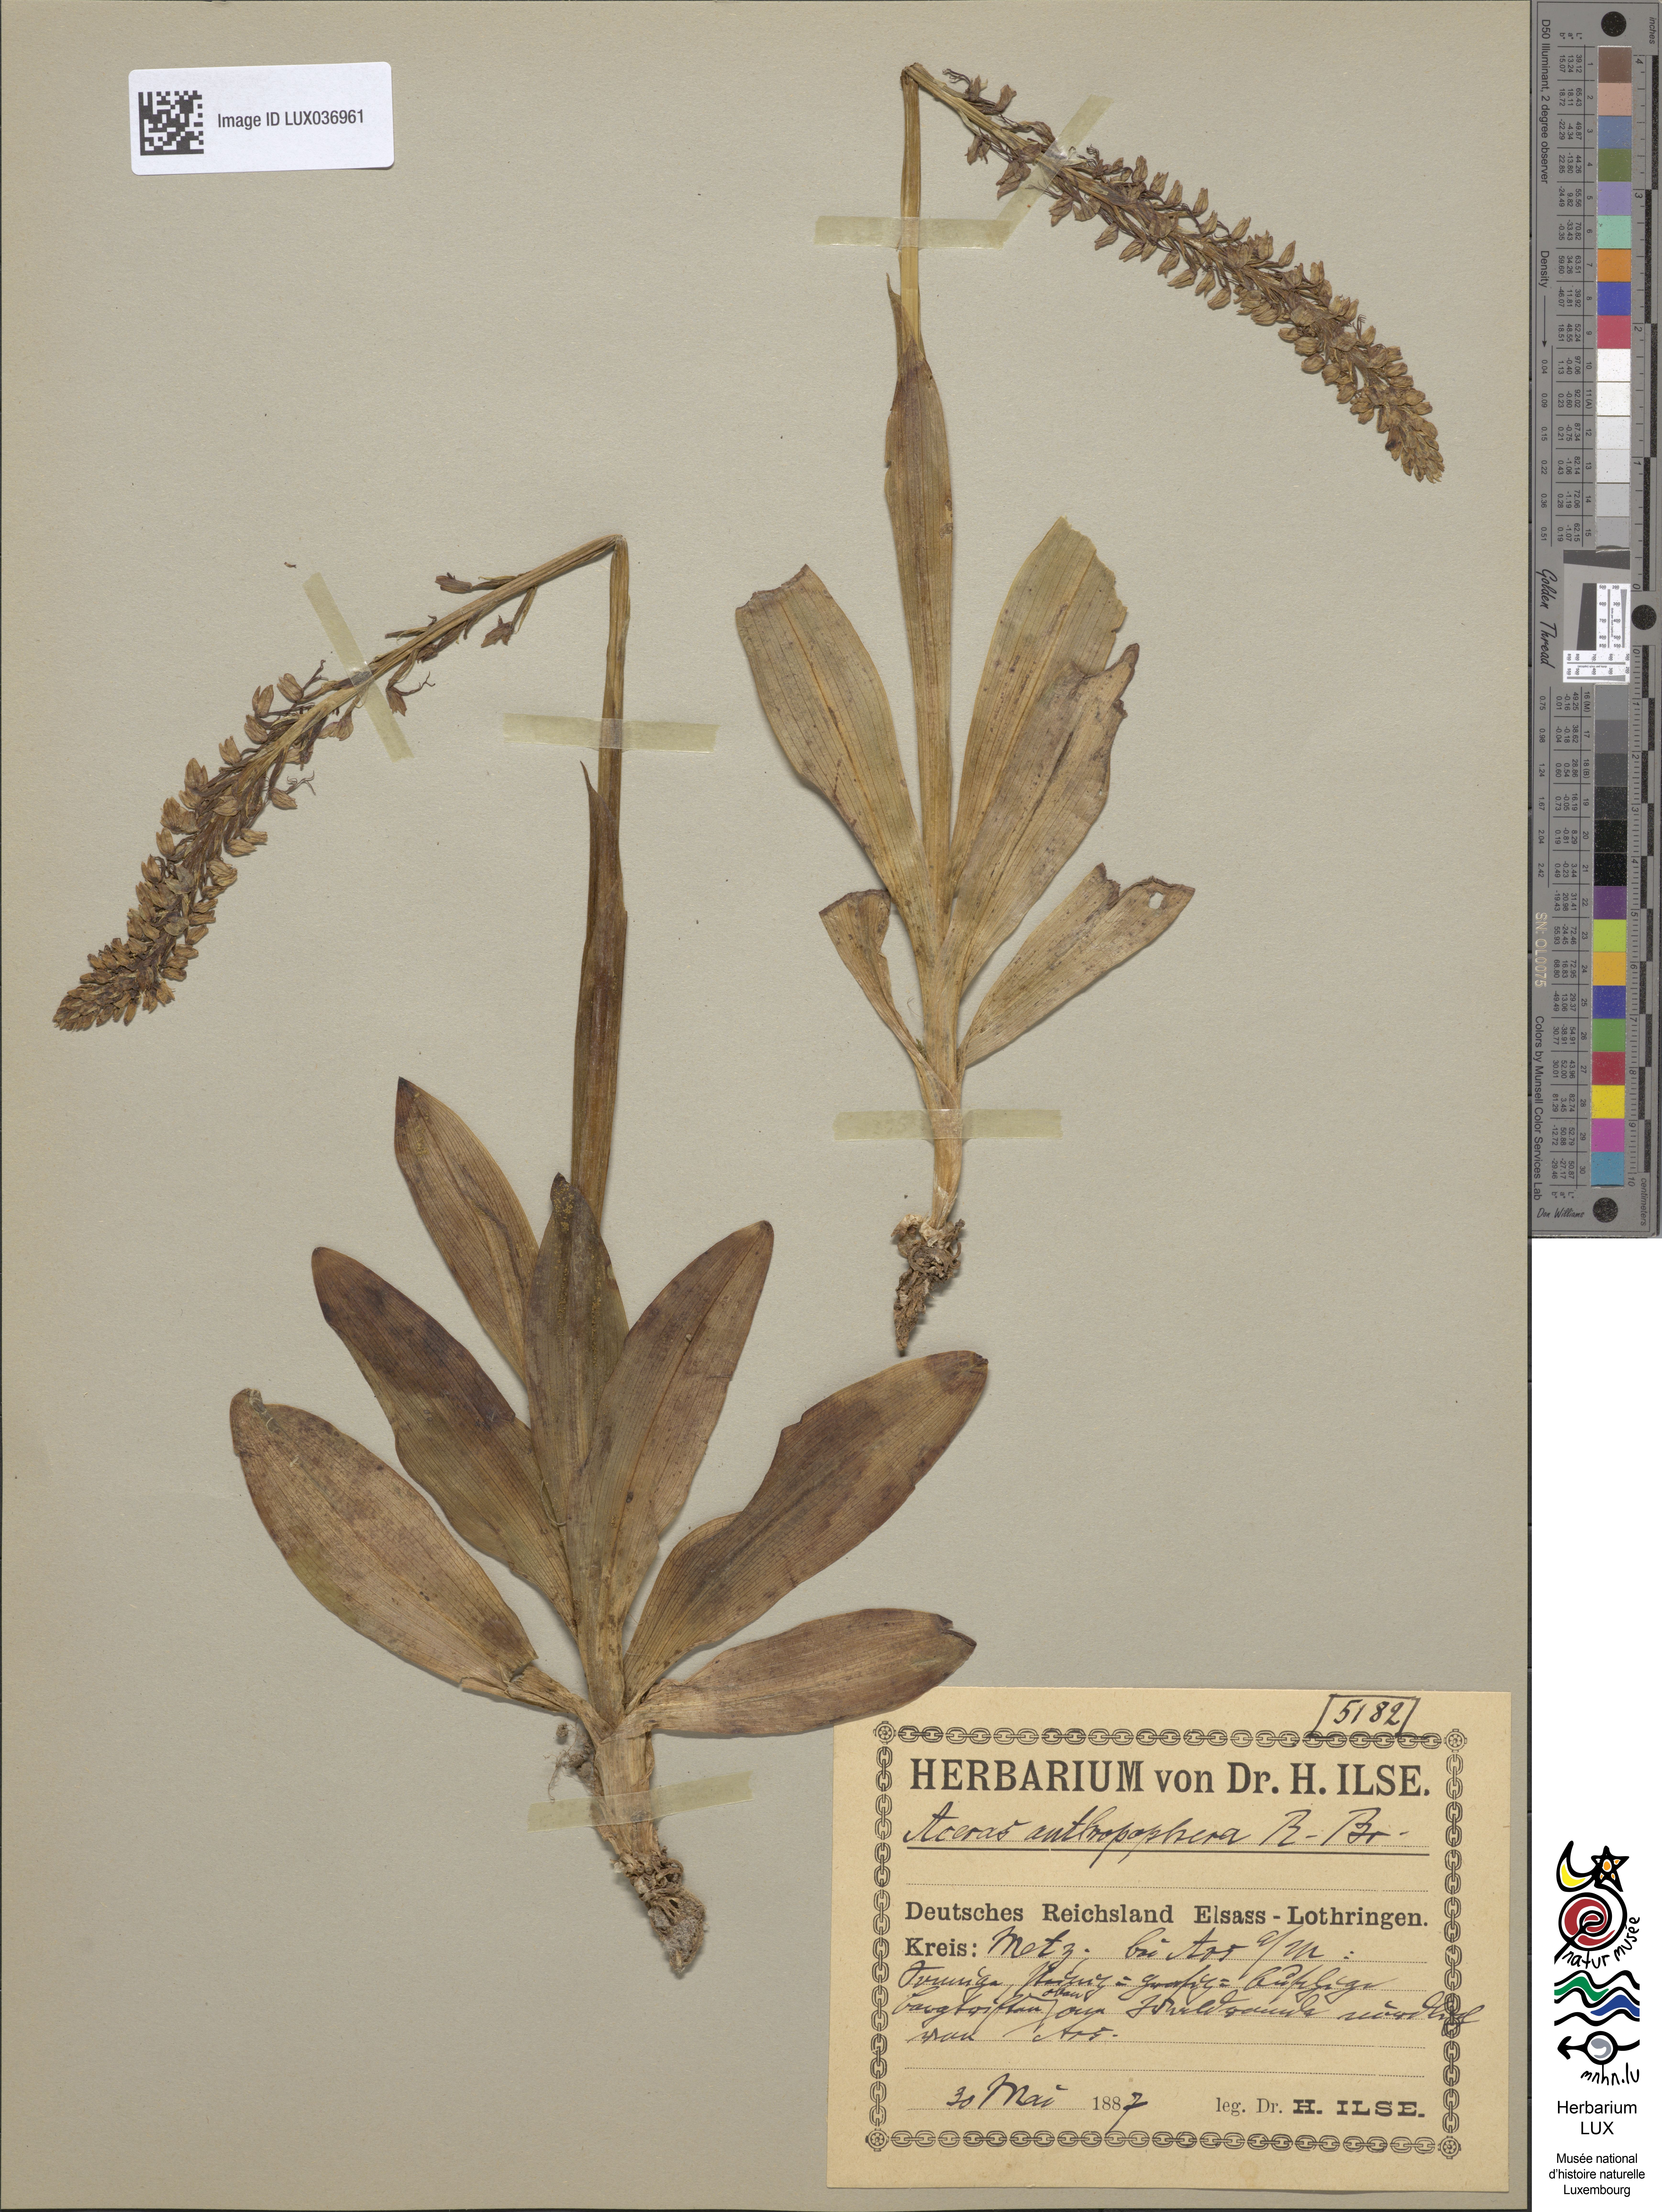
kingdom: Plantae
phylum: Tracheophyta
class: Liliopsida
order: Asparagales
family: Orchidaceae
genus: Orchis
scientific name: Orchis anthropophora
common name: Man orchid
